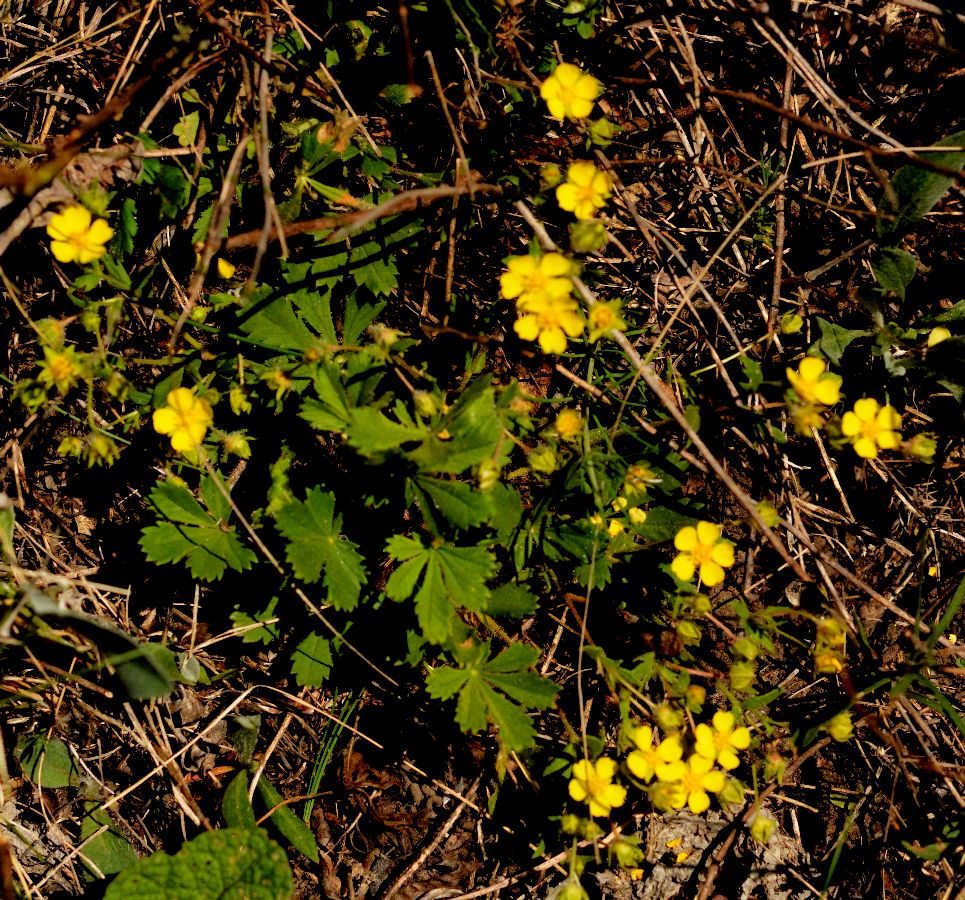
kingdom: Plantae
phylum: Tracheophyta
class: Magnoliopsida
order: Rosales
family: Rosaceae
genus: Potentilla
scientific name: Potentilla heptaphylla
